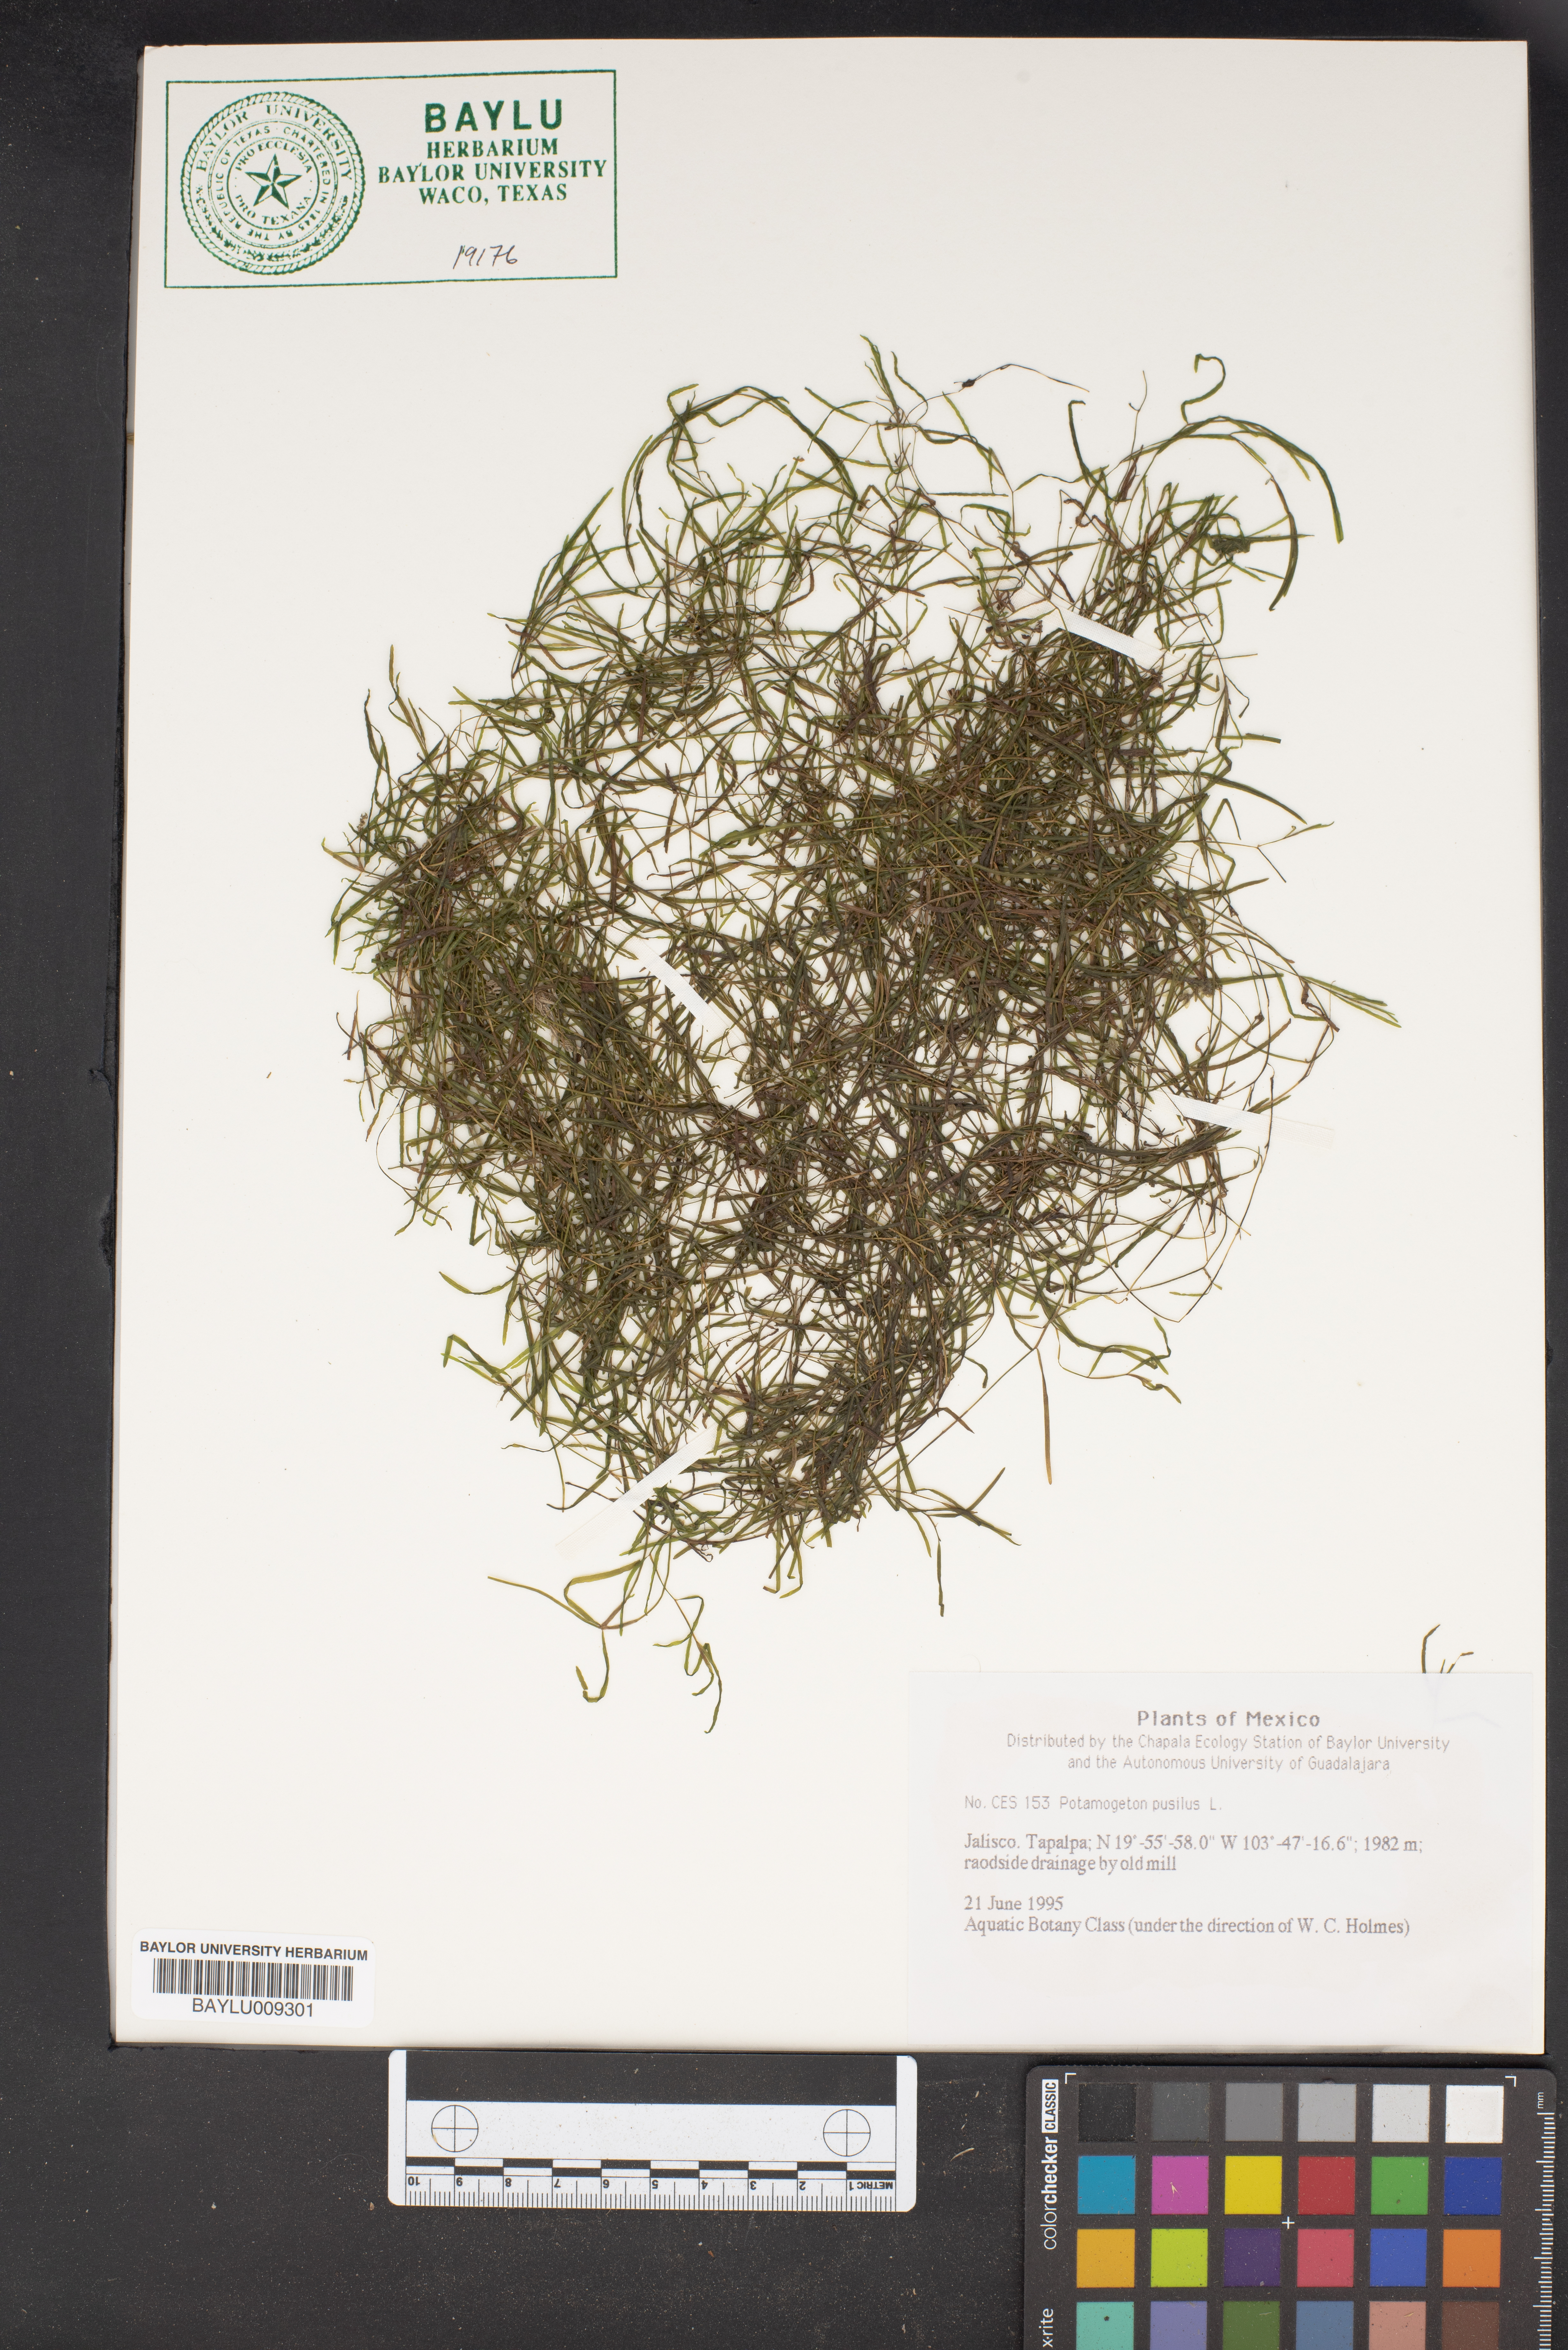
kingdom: Plantae
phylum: Tracheophyta
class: Liliopsida
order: Alismatales
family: Potamogetonaceae
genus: Potamogeton
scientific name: Potamogeton pusillus
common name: Lesser pondweed
